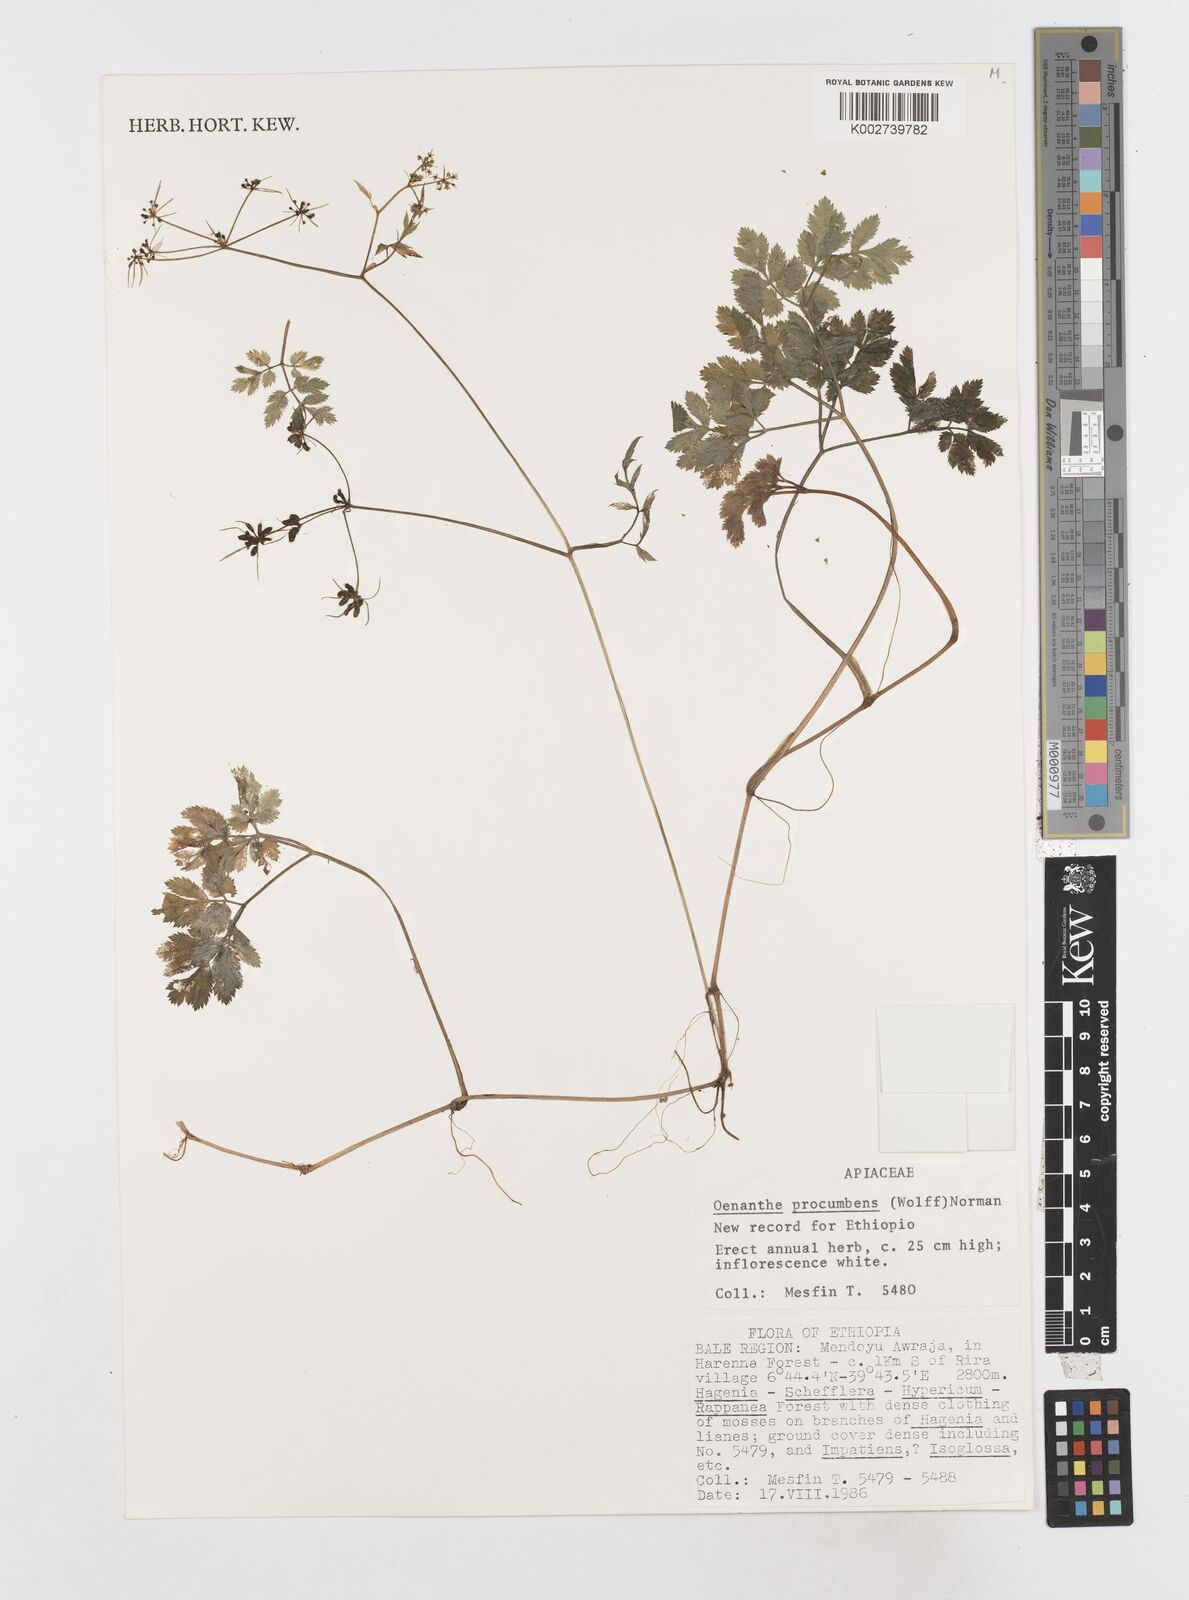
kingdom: Plantae
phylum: Tracheophyta
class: Magnoliopsida
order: Apiales
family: Apiaceae
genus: Oenanthe
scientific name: Oenanthe procumbens
